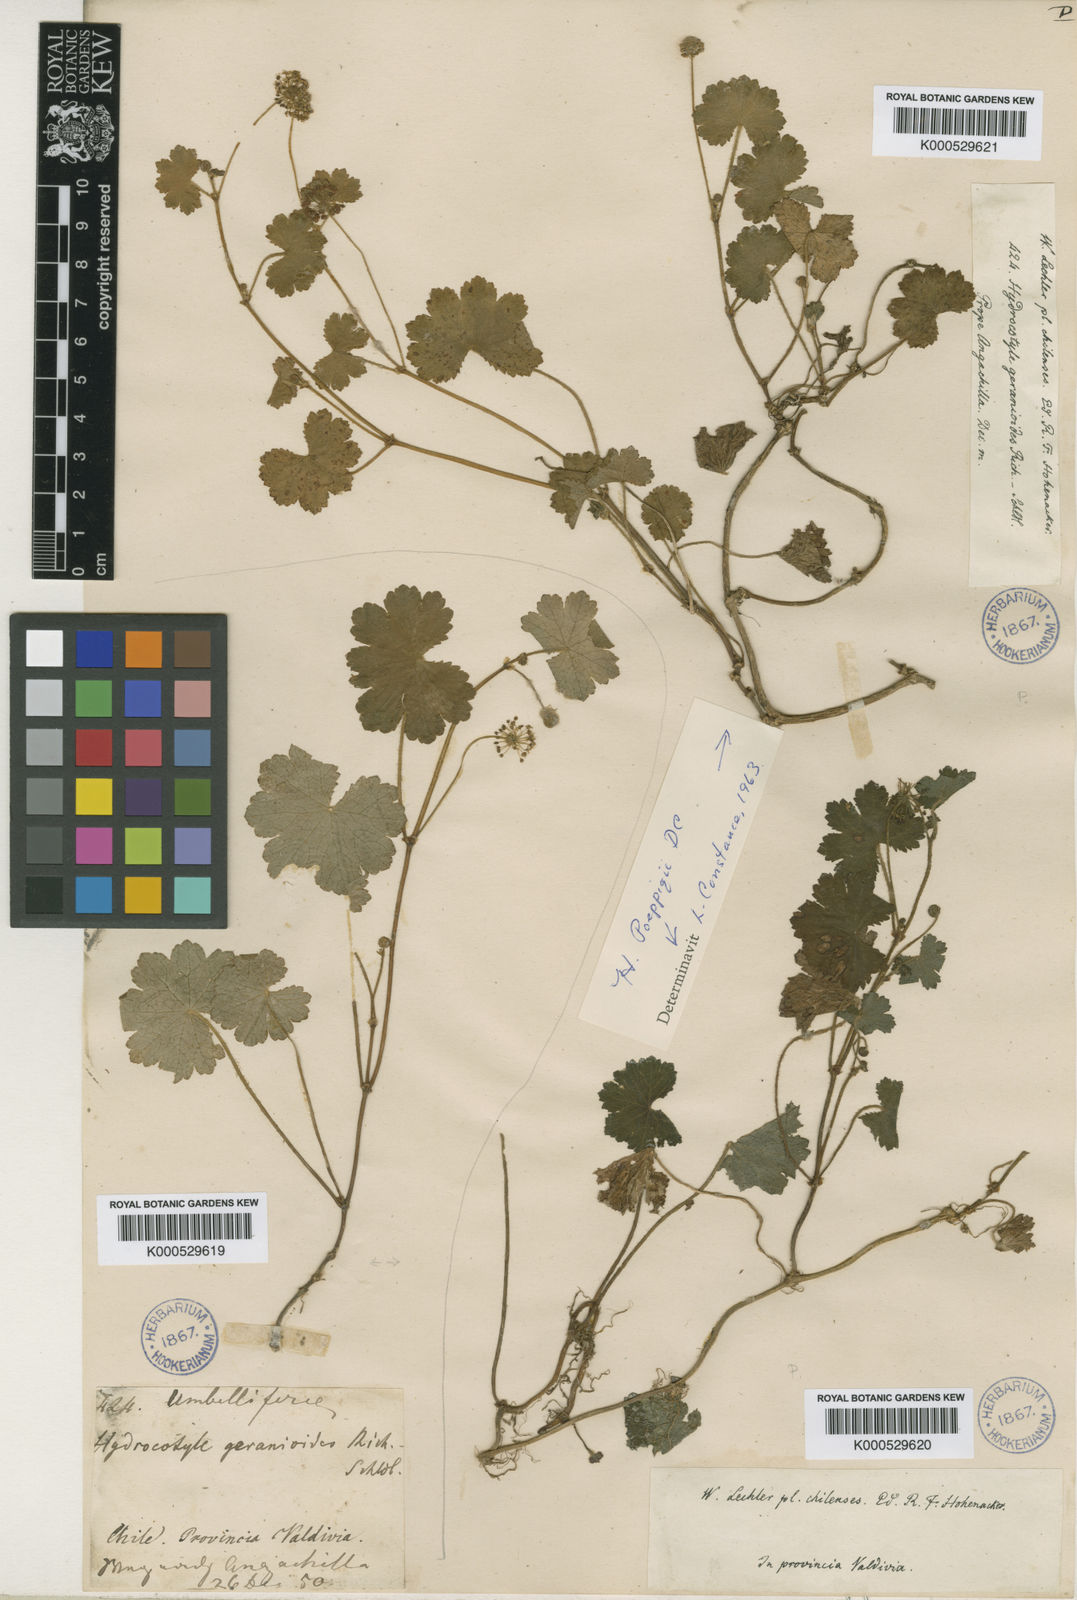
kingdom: Plantae
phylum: Tracheophyta
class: Magnoliopsida
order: Apiales
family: Araliaceae
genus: Hydrocotyle
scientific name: Hydrocotyle poeppigii
